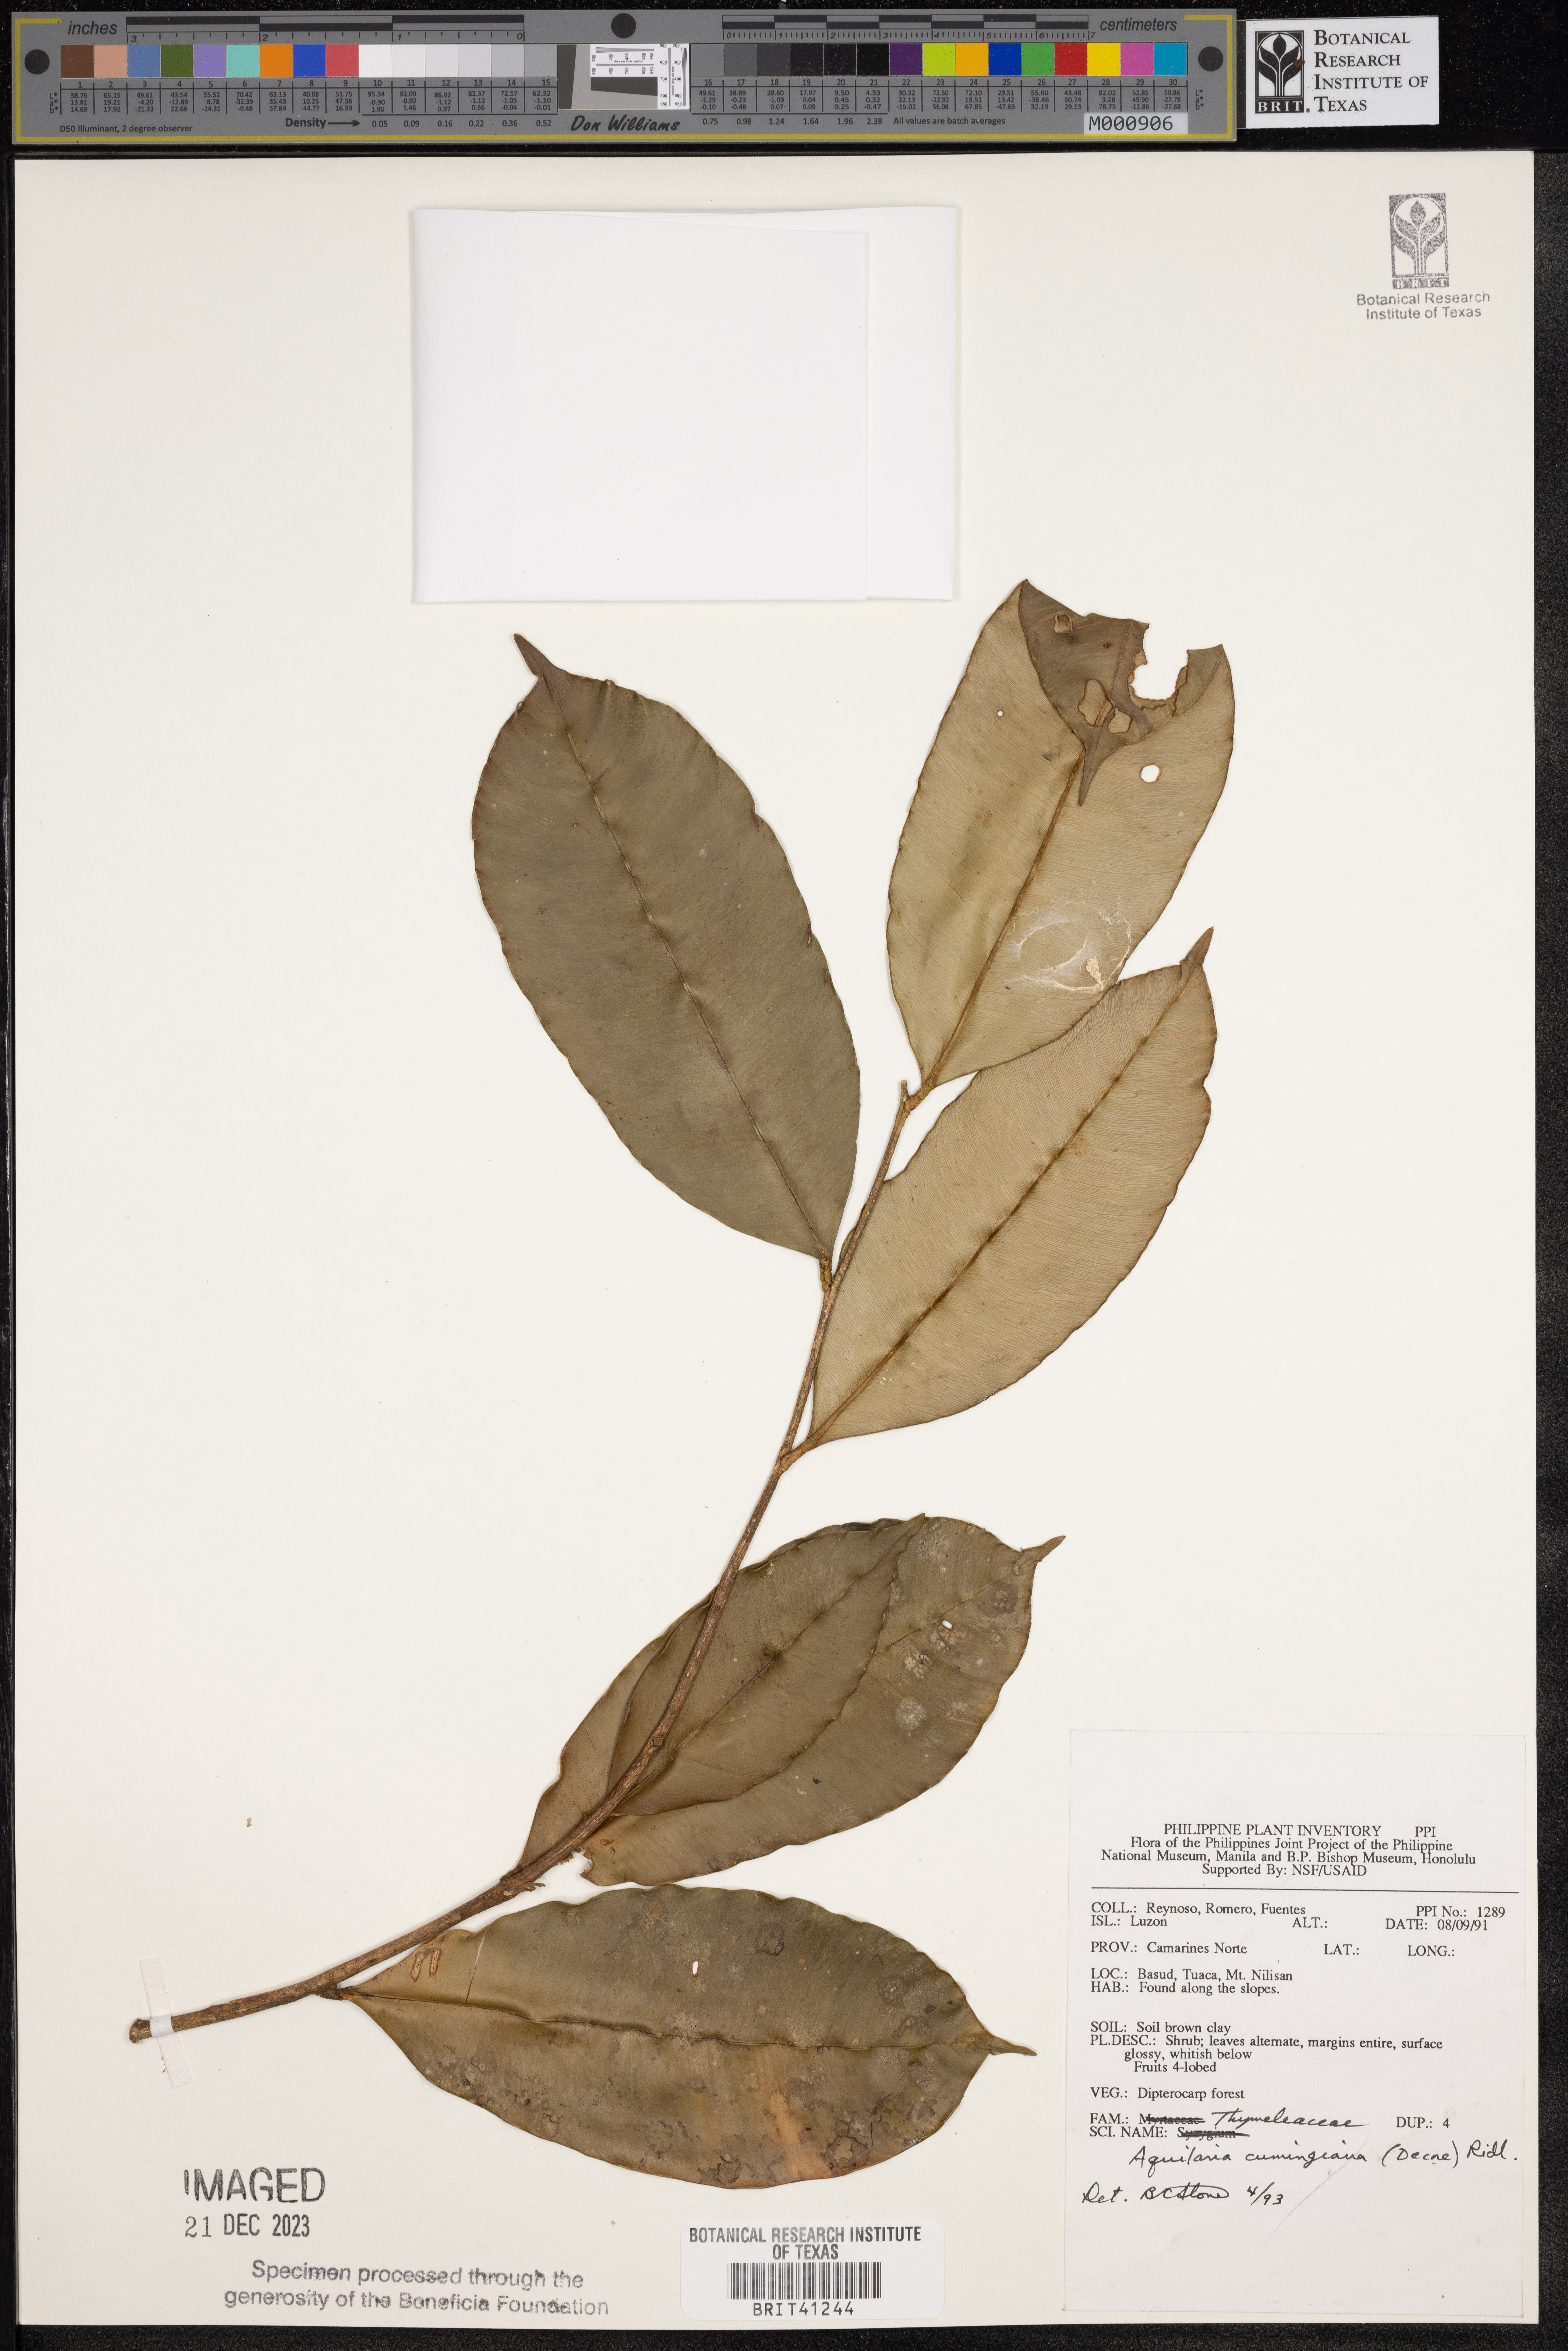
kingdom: Plantae
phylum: Tracheophyta
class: Magnoliopsida
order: Malvales
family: Thymelaeaceae
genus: Aquilaria
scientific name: Aquilaria cumingiana
